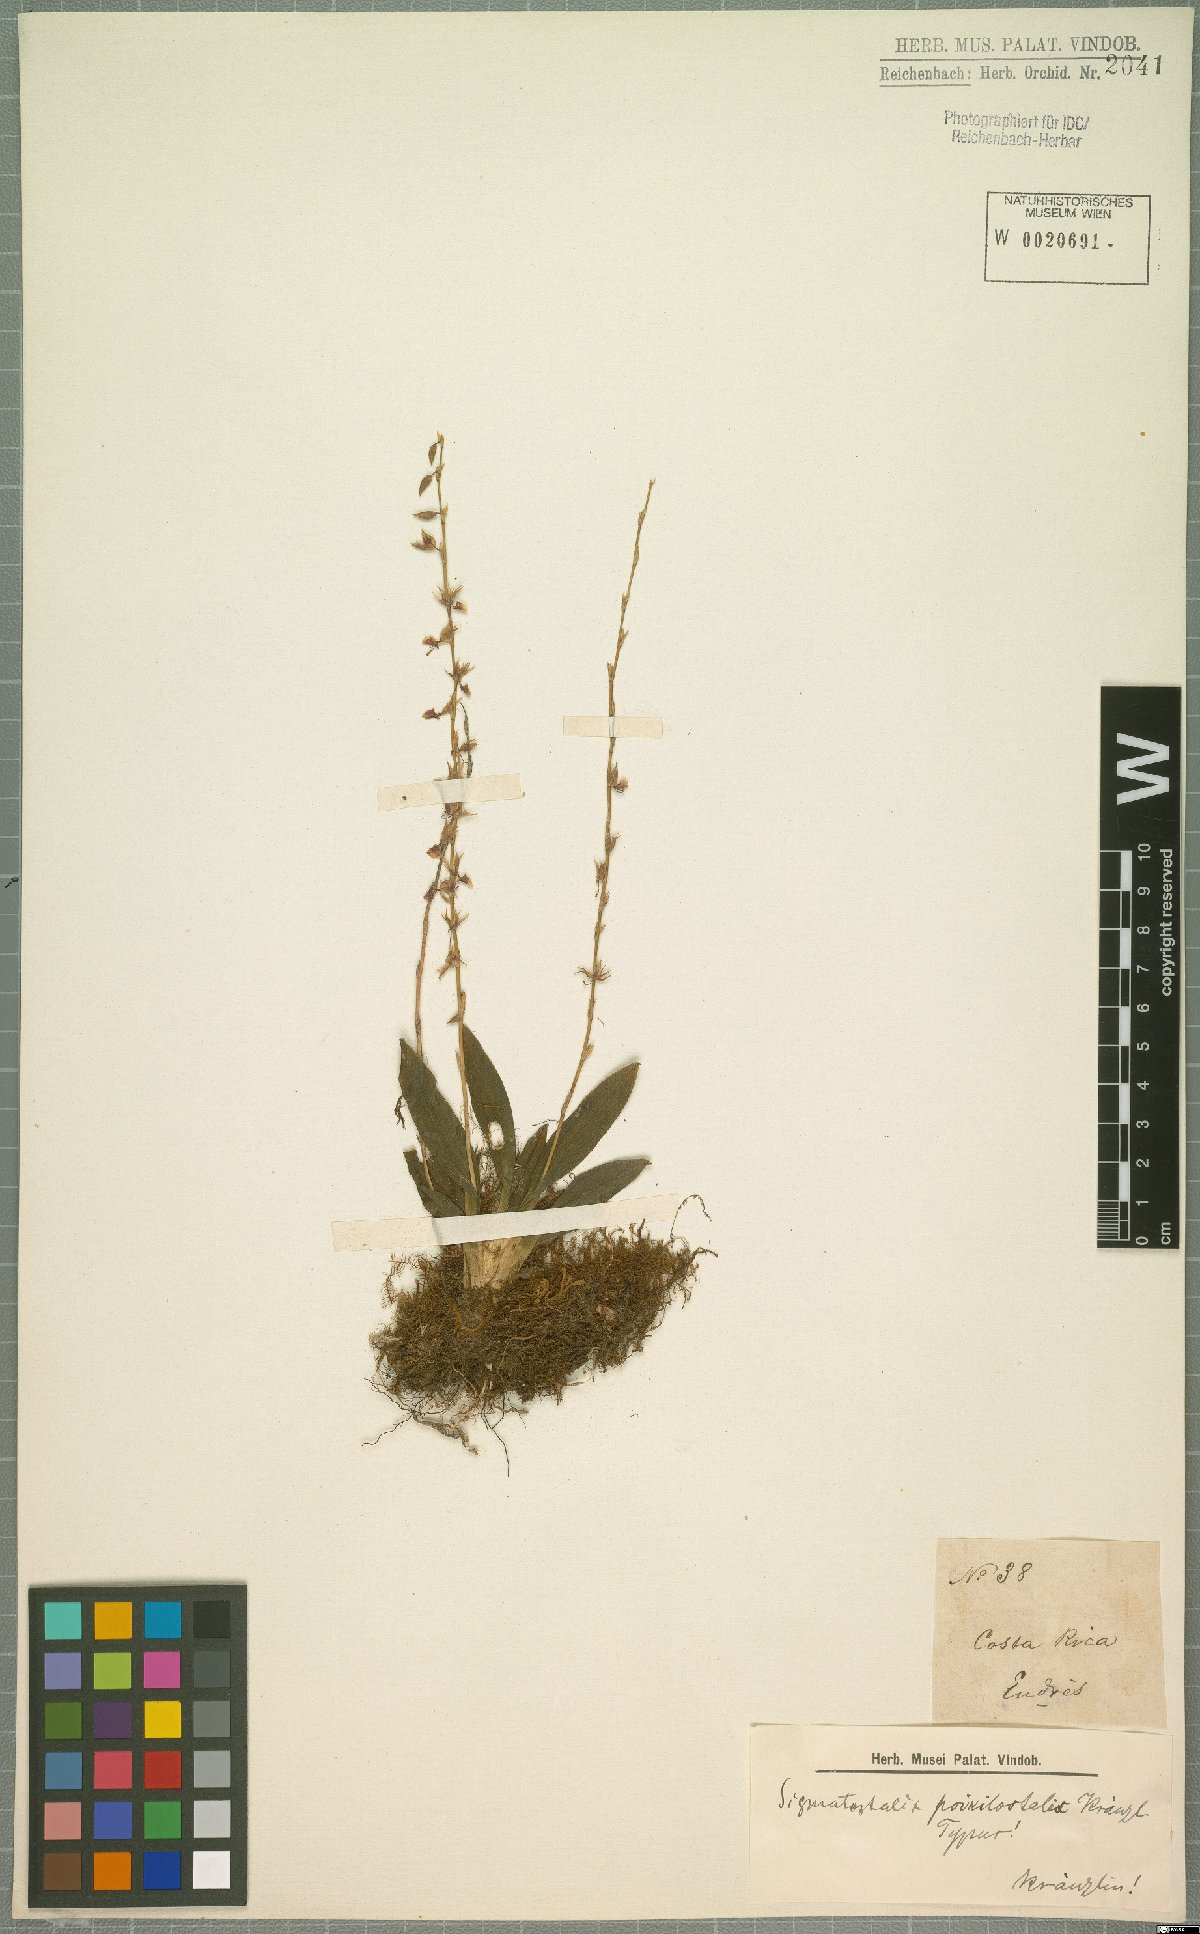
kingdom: Plantae
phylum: Tracheophyta
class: Liliopsida
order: Asparagales
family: Orchidaceae
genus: Oncidium
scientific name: Oncidium poikilostalix
